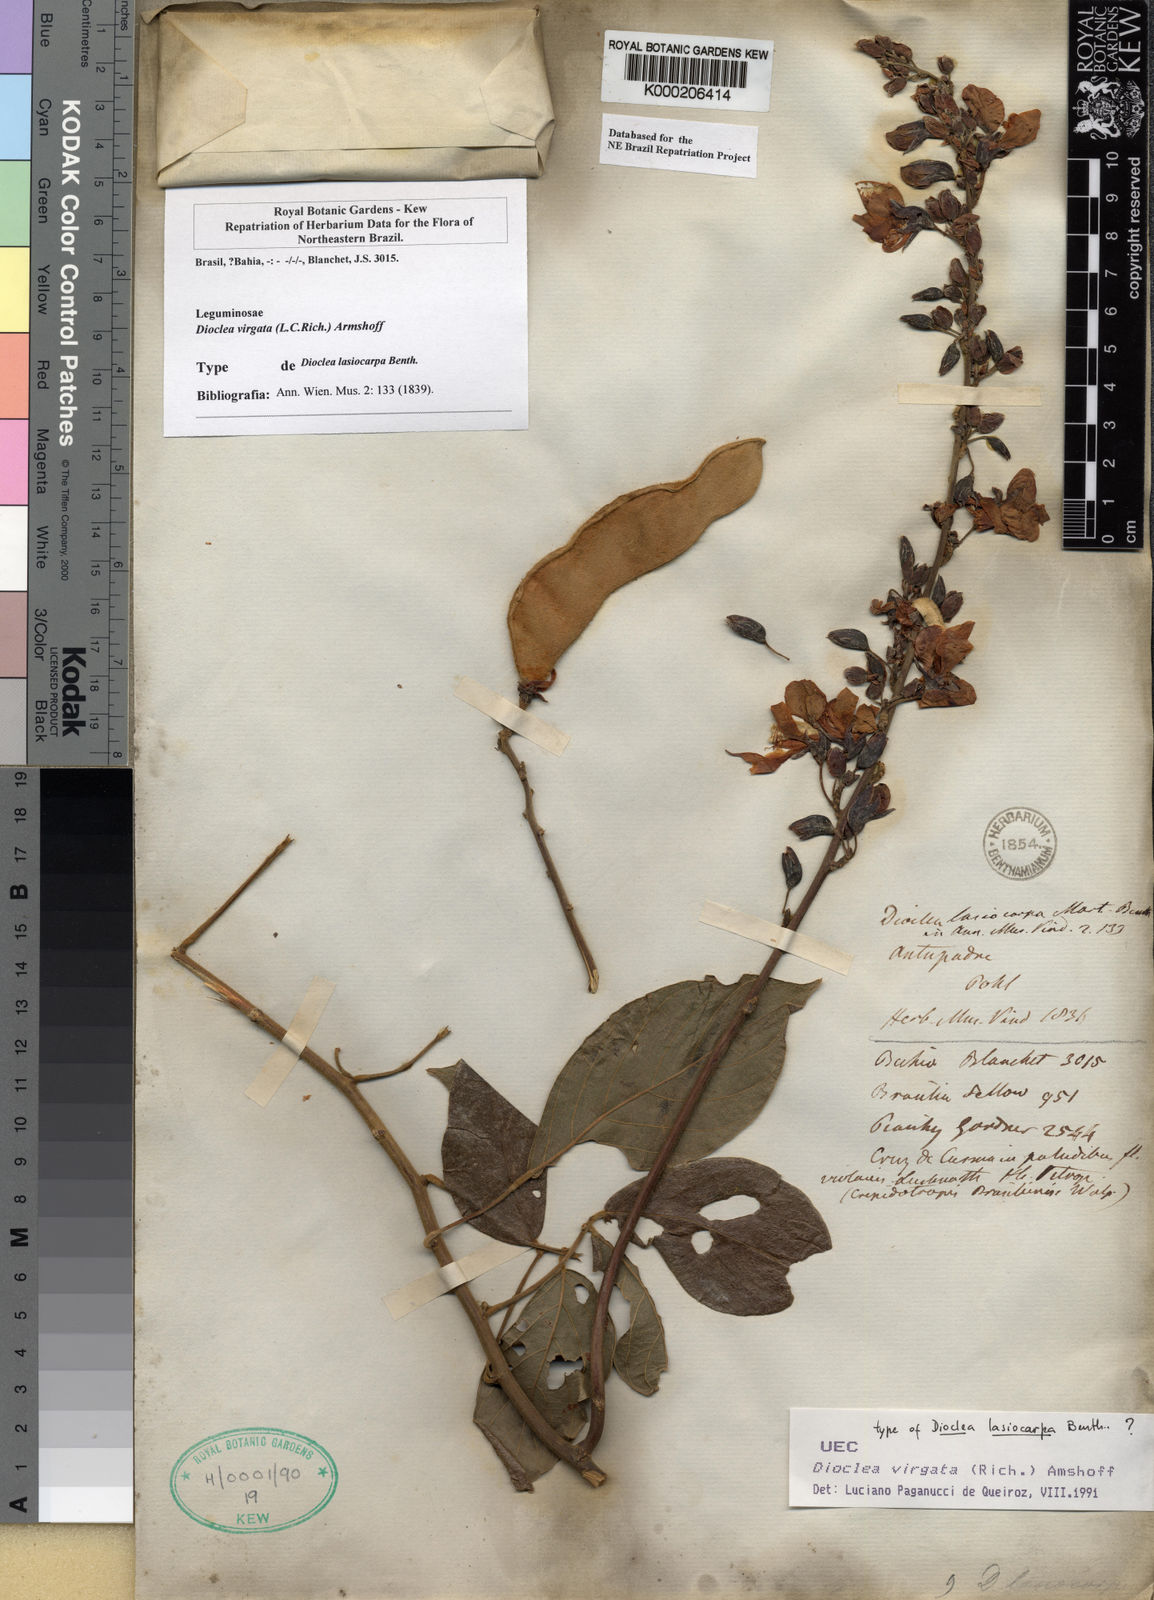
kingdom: Plantae
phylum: Tracheophyta
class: Magnoliopsida
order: Fabales
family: Fabaceae
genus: Dioclea
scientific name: Dioclea virgata
